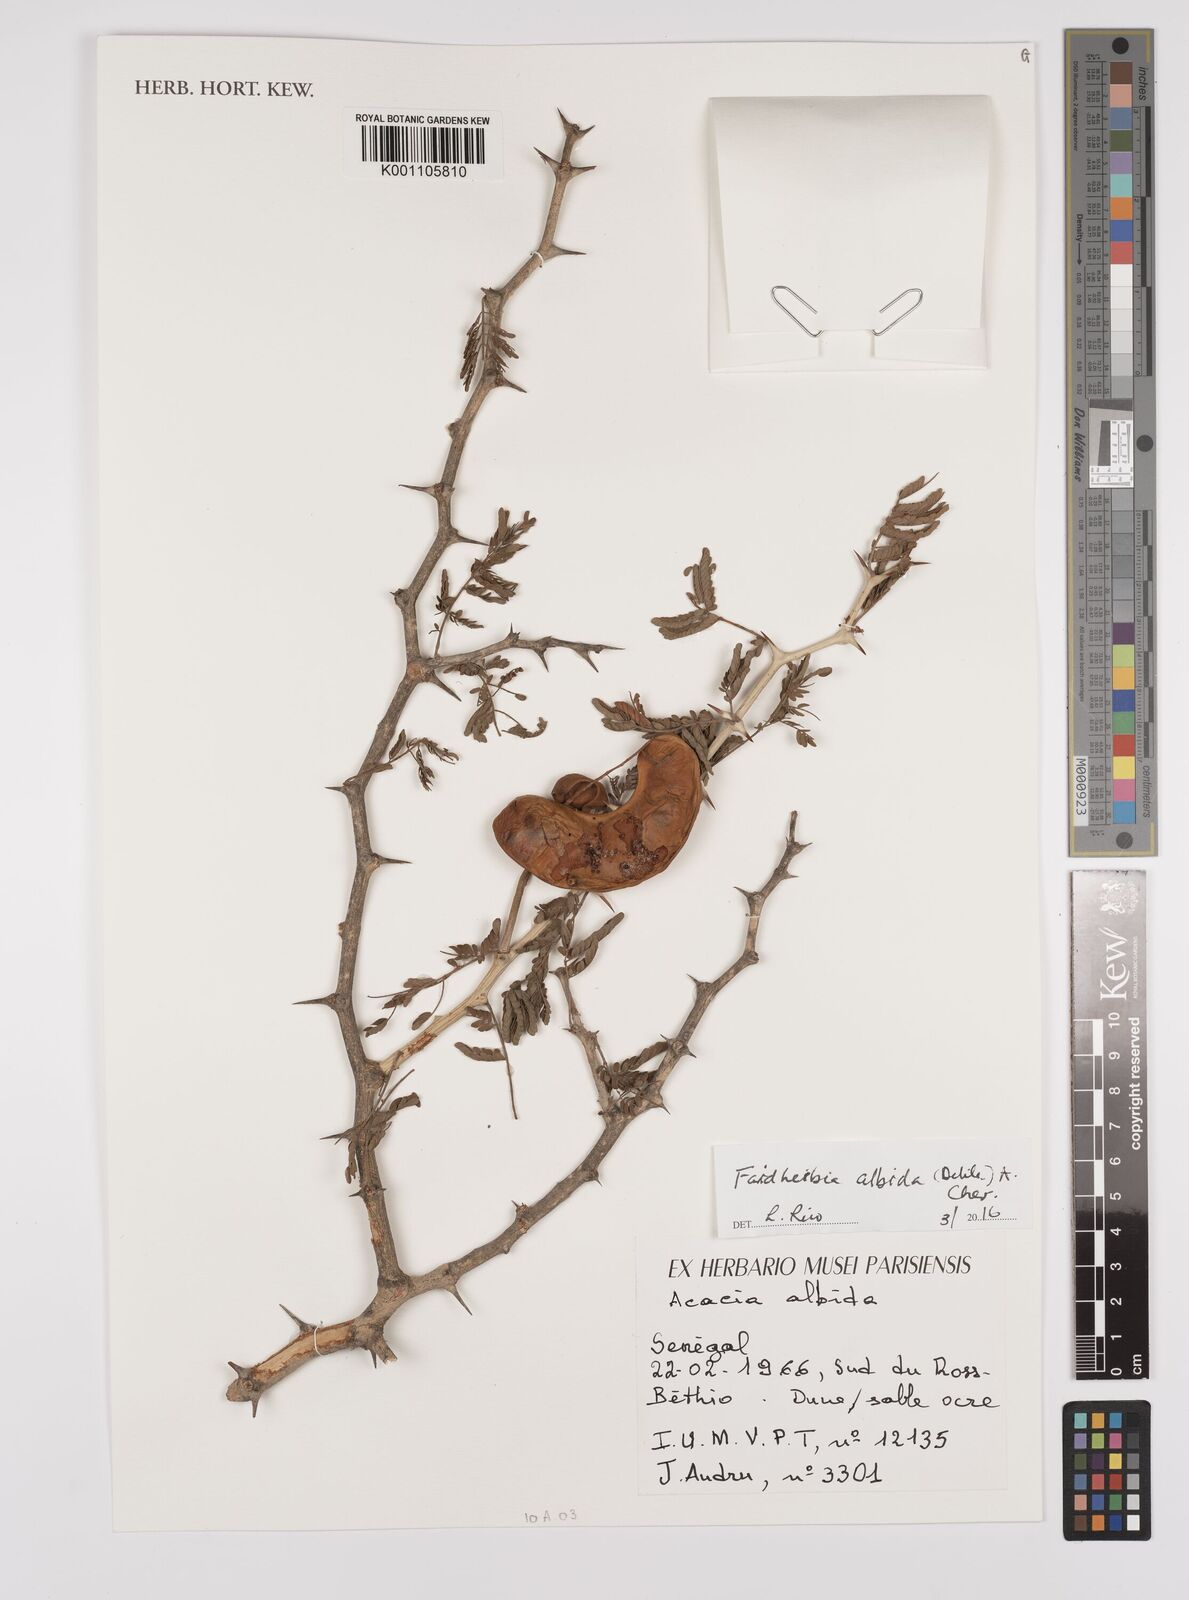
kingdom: Plantae
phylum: Tracheophyta
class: Magnoliopsida
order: Fabales
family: Fabaceae
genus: Faidherbia
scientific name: Faidherbia albida
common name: Anatree
